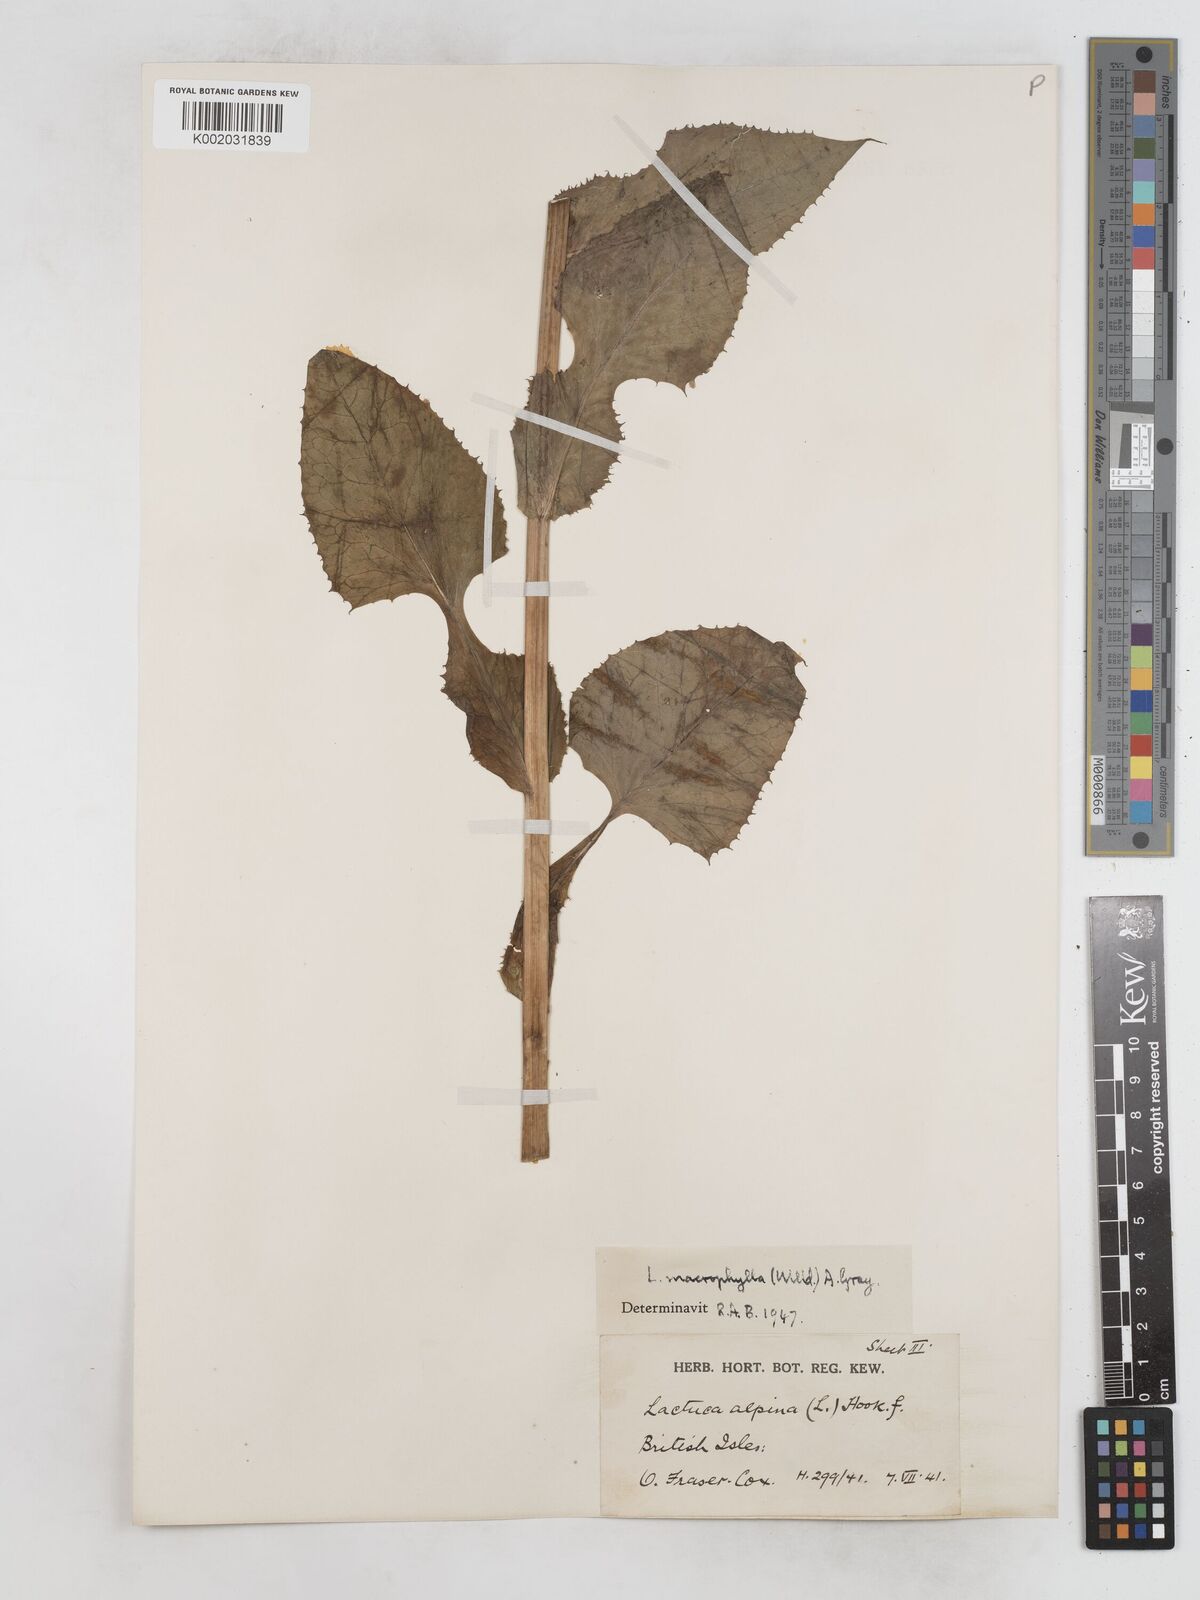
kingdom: Plantae
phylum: Tracheophyta
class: Magnoliopsida
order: Asterales
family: Asteraceae
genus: Lactuca
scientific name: Lactuca macrophylla
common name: Common blue-sow-thistle
